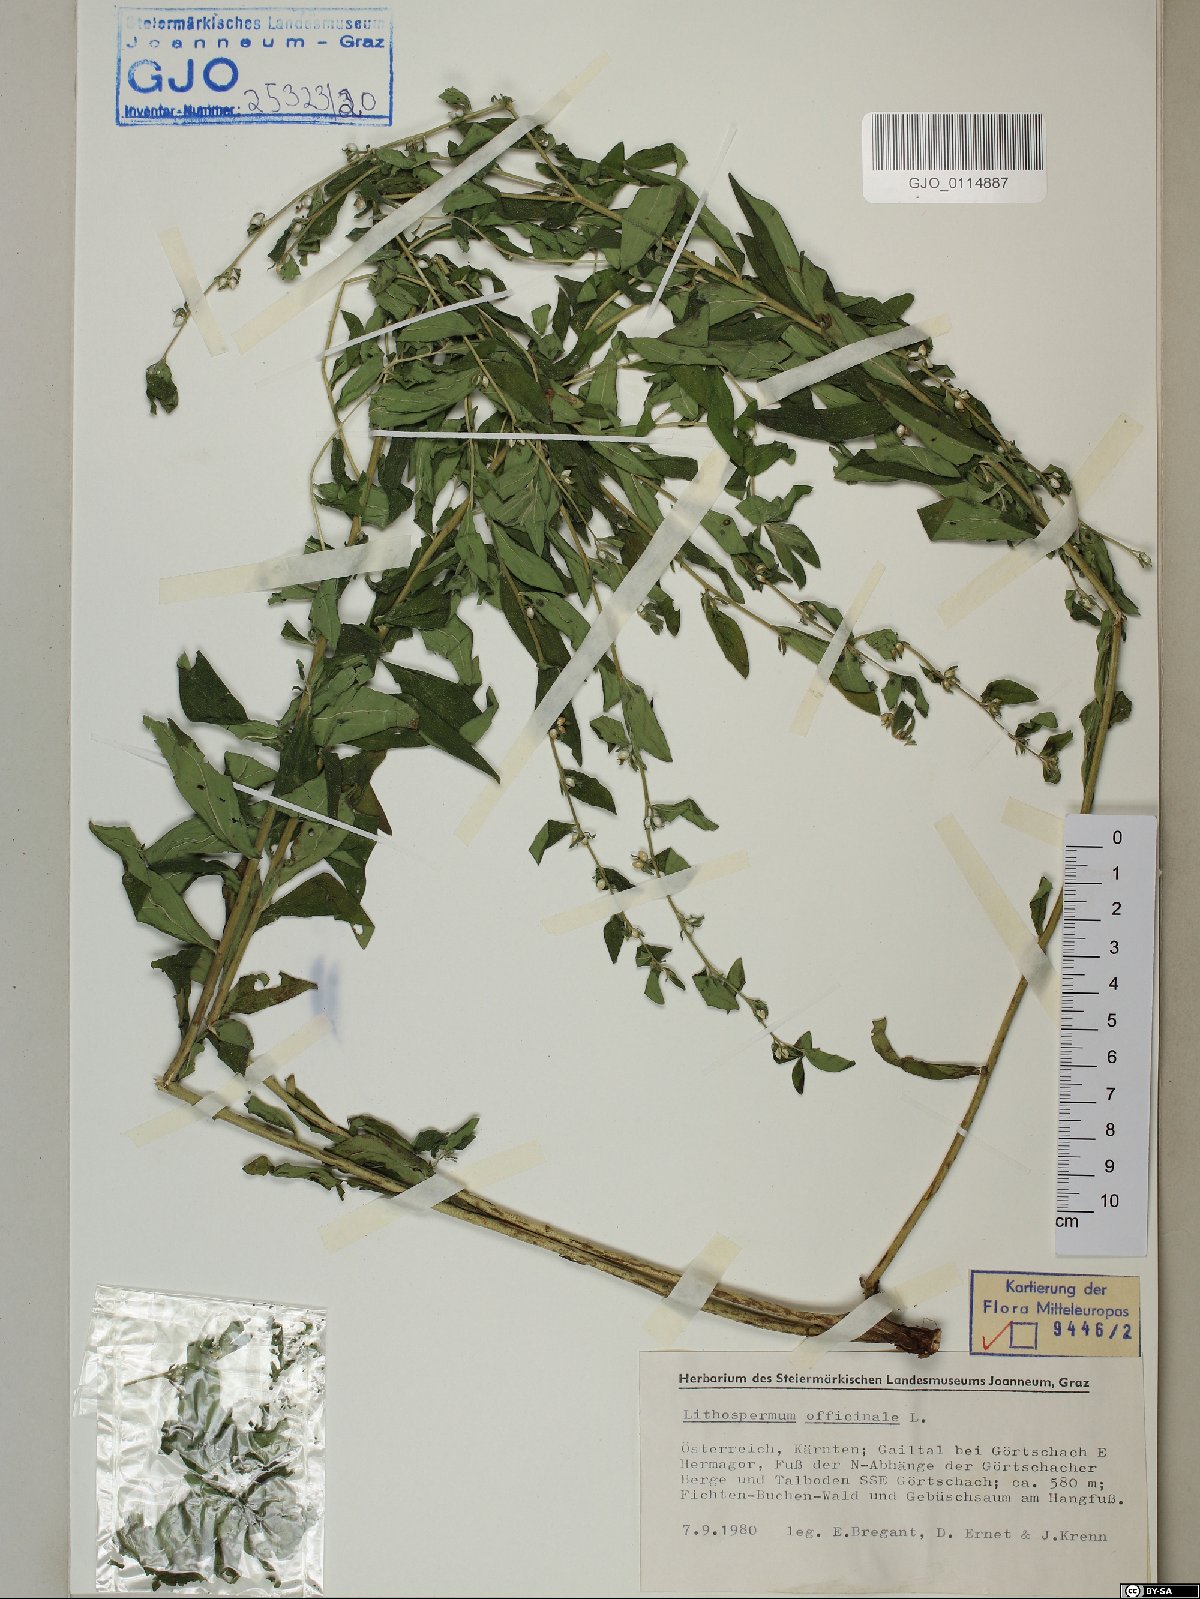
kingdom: Plantae
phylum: Tracheophyta
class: Magnoliopsida
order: Boraginales
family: Boraginaceae
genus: Lithospermum
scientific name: Lithospermum officinale
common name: Common gromwell
